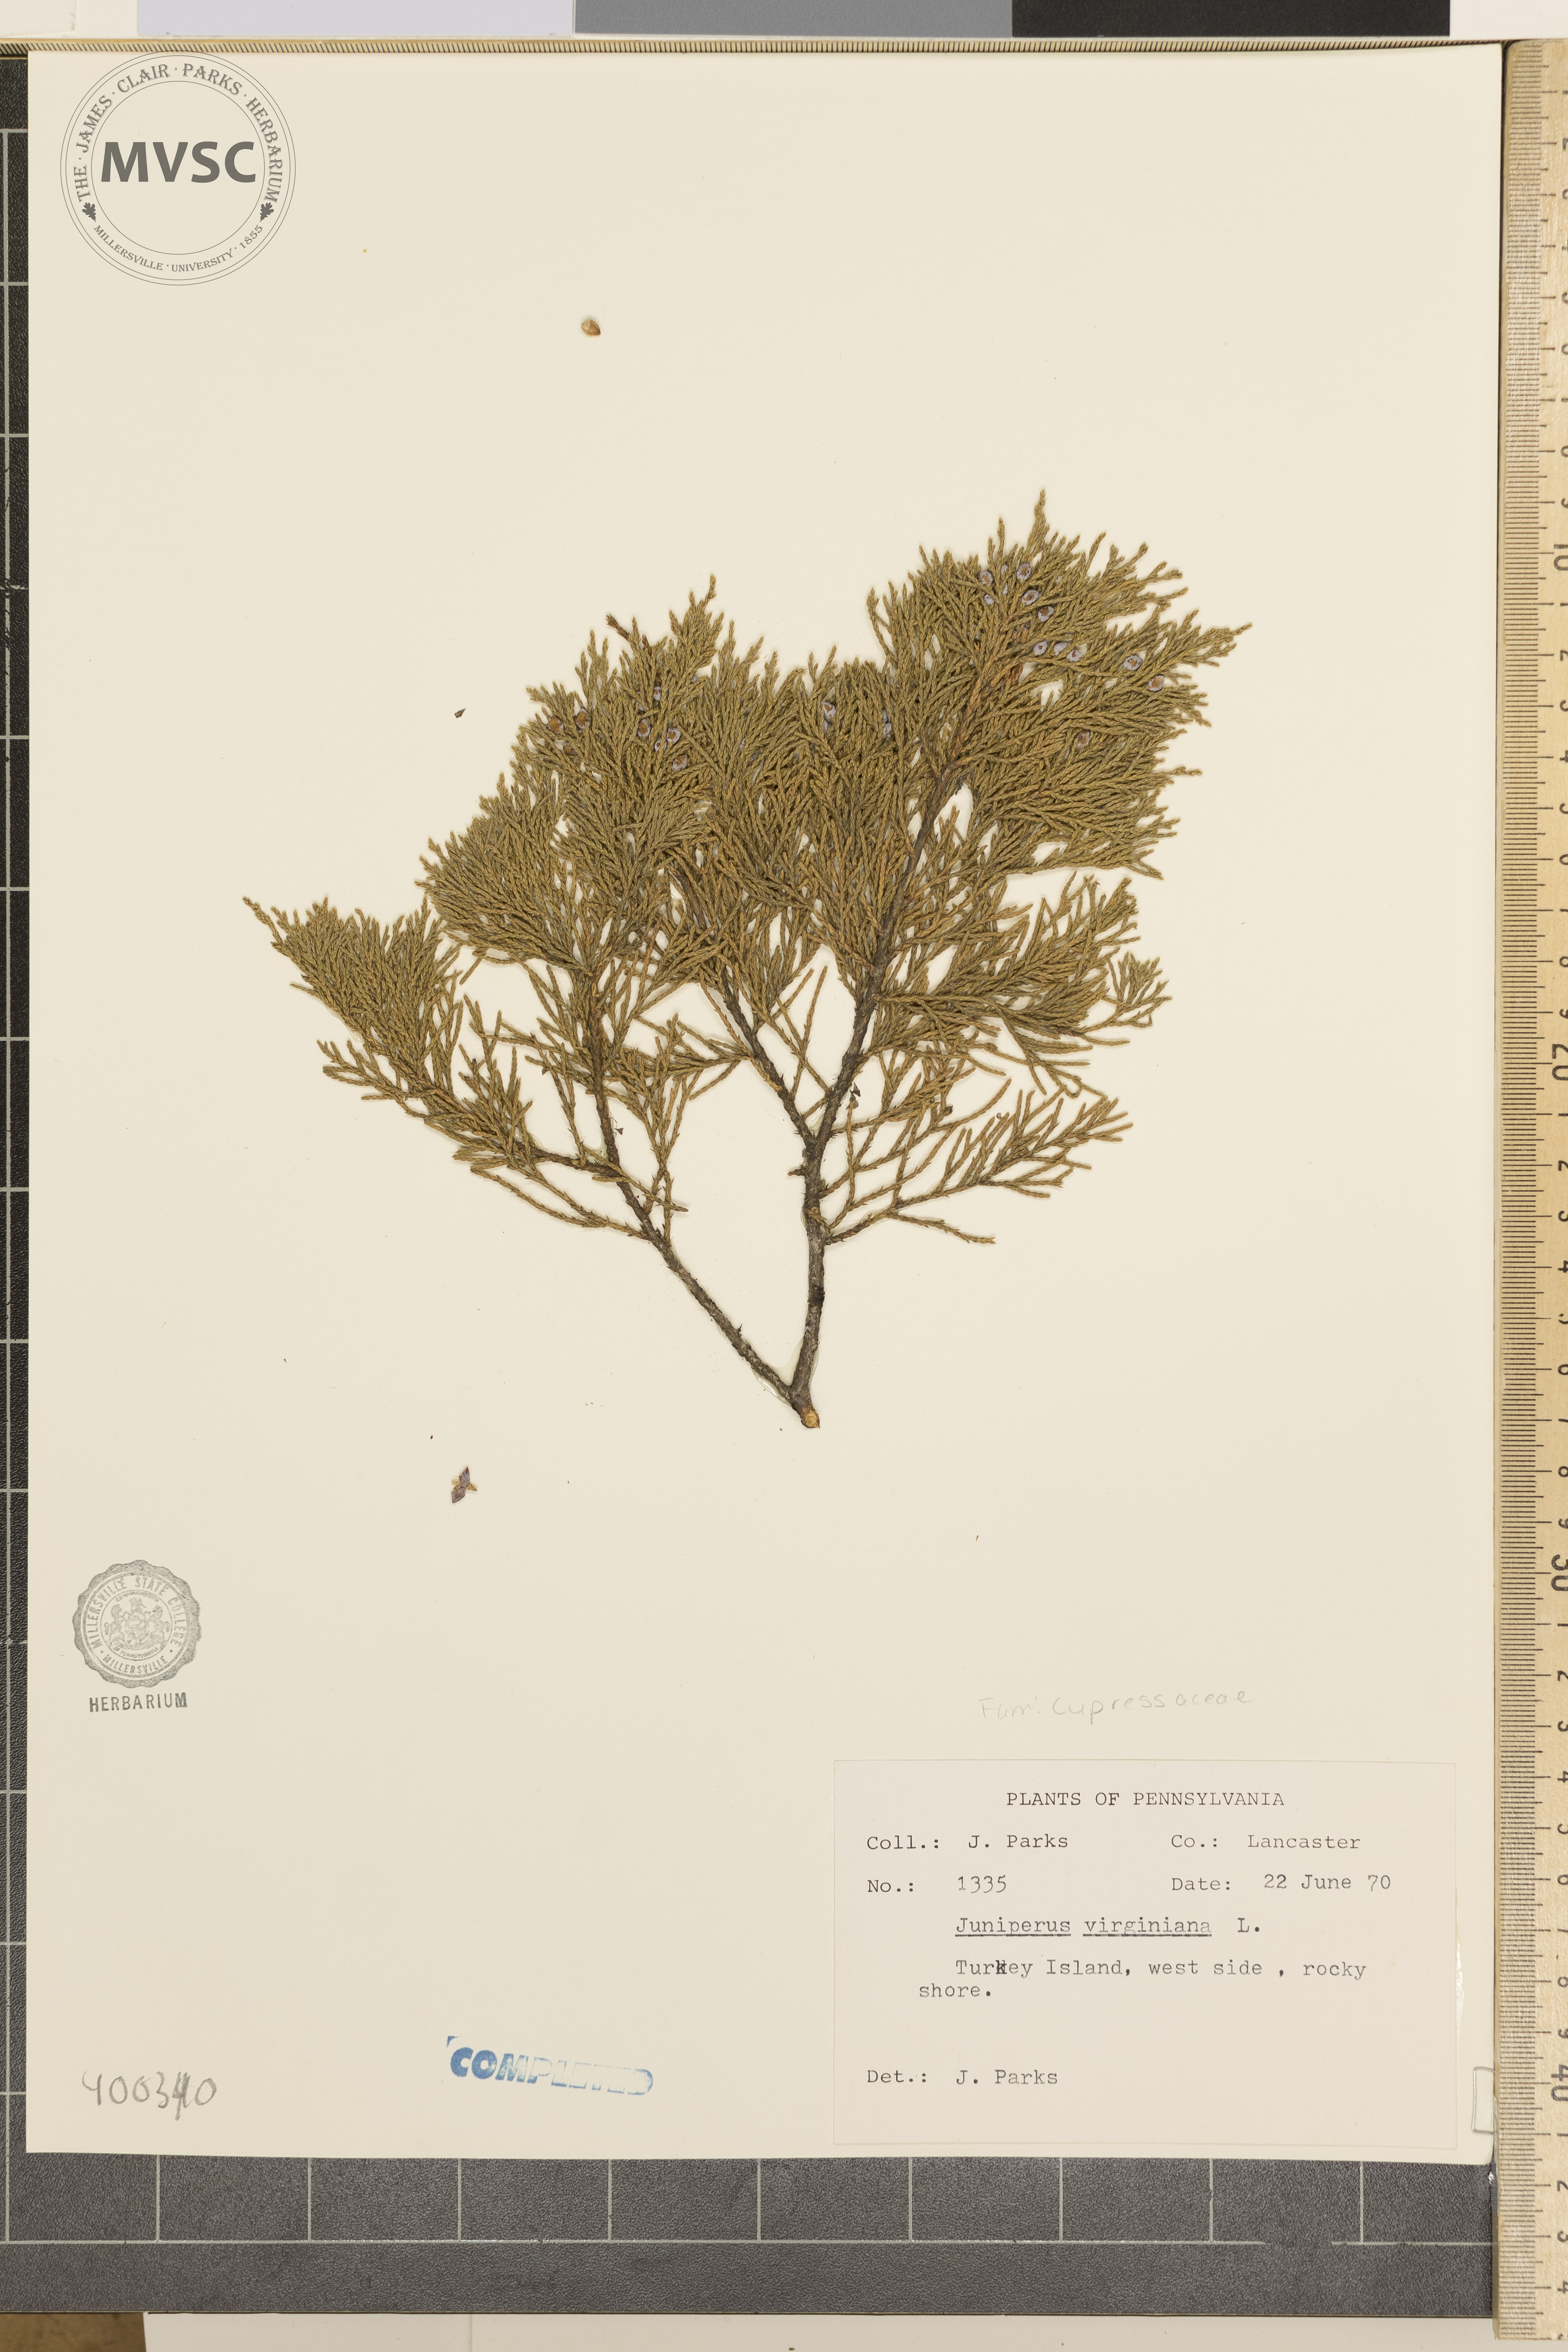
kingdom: Plantae
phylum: Tracheophyta
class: Pinopsida
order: Pinales
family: Cupressaceae
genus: Juniperus
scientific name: Juniperus virginiana
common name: Eastern red-cedar
